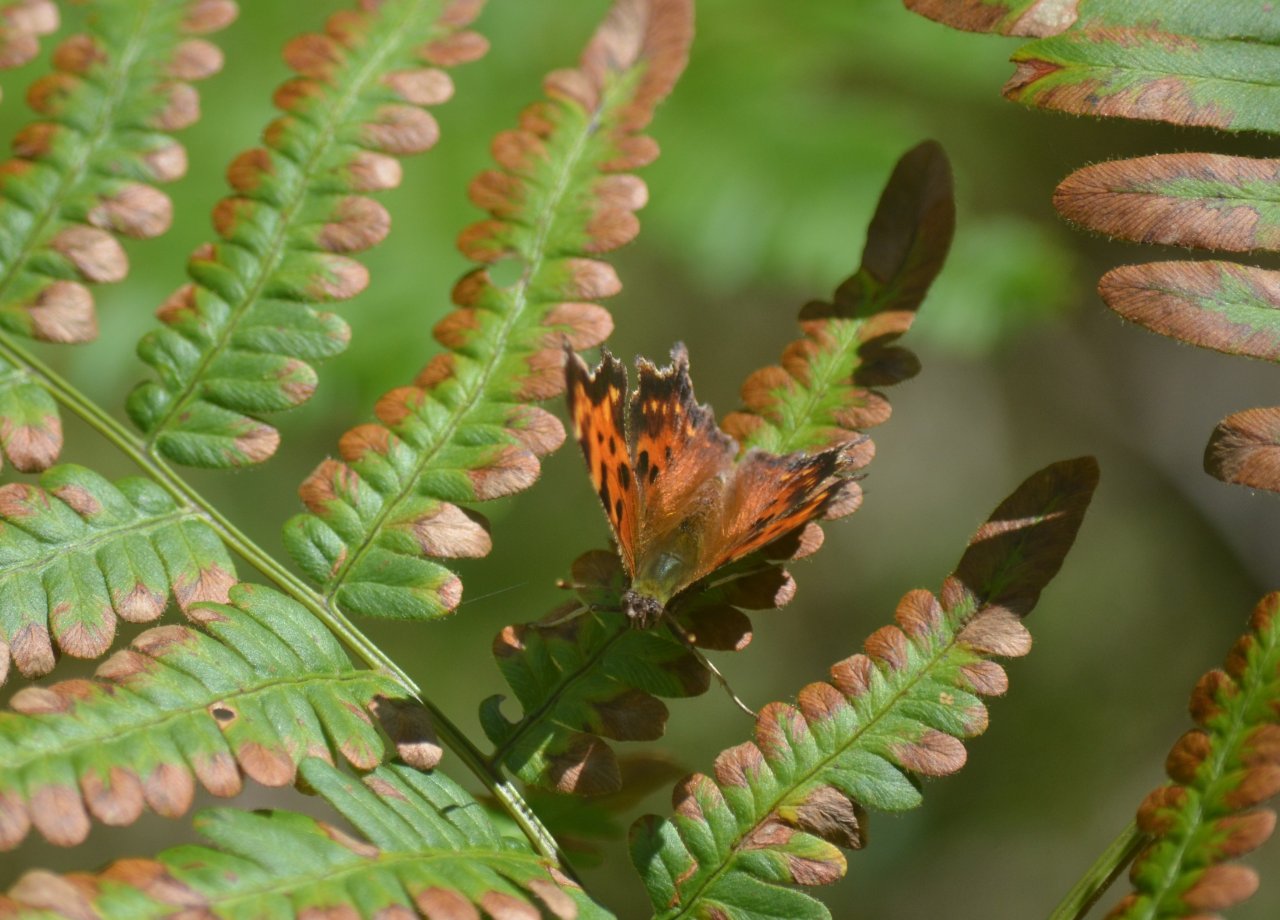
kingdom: Animalia
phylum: Arthropoda
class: Insecta
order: Lepidoptera
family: Nymphalidae
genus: Polygonia
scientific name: Polygonia faunus
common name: Green Comma
